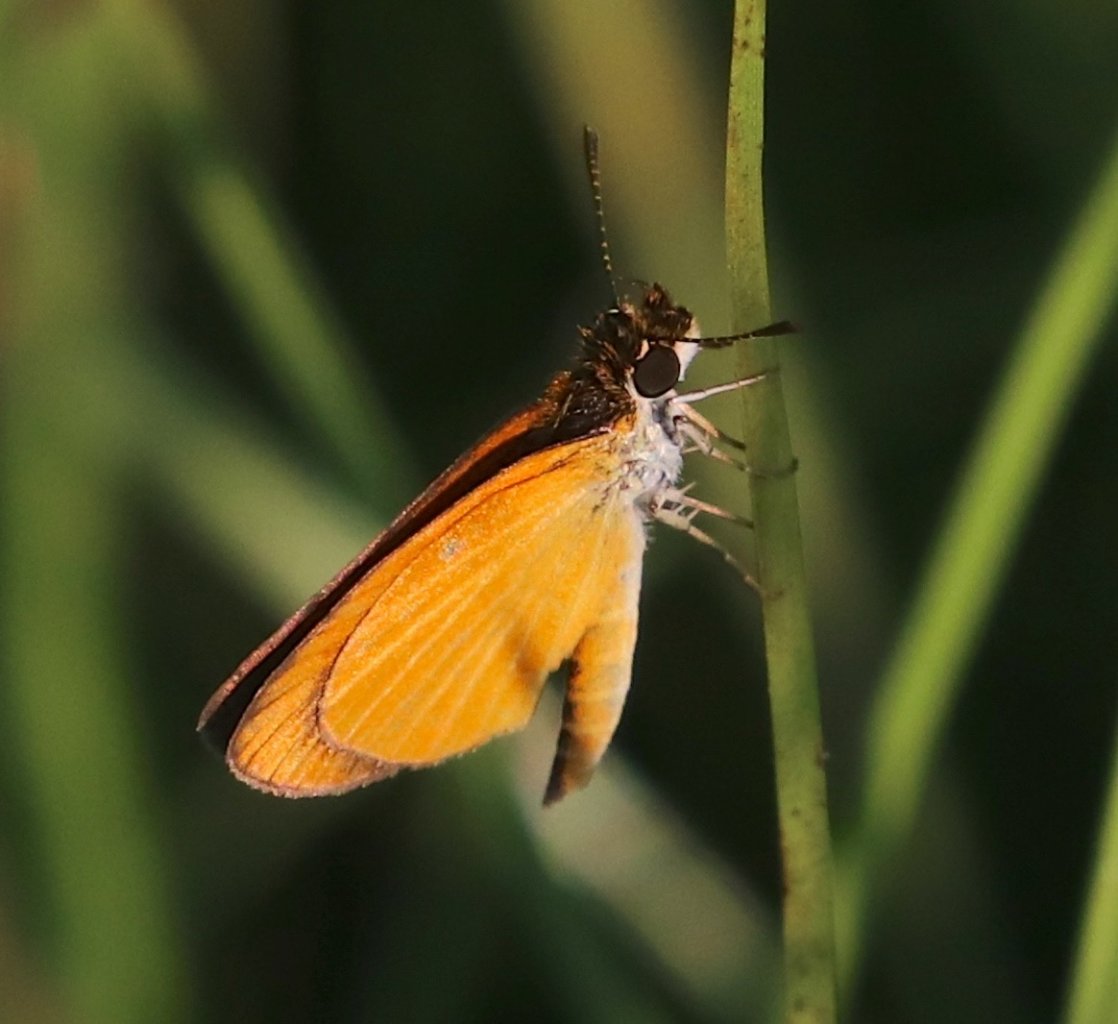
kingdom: Animalia
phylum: Arthropoda
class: Insecta
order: Lepidoptera
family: Hesperiidae
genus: Ancyloxypha
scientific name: Ancyloxypha numitor
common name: Least Skipper
